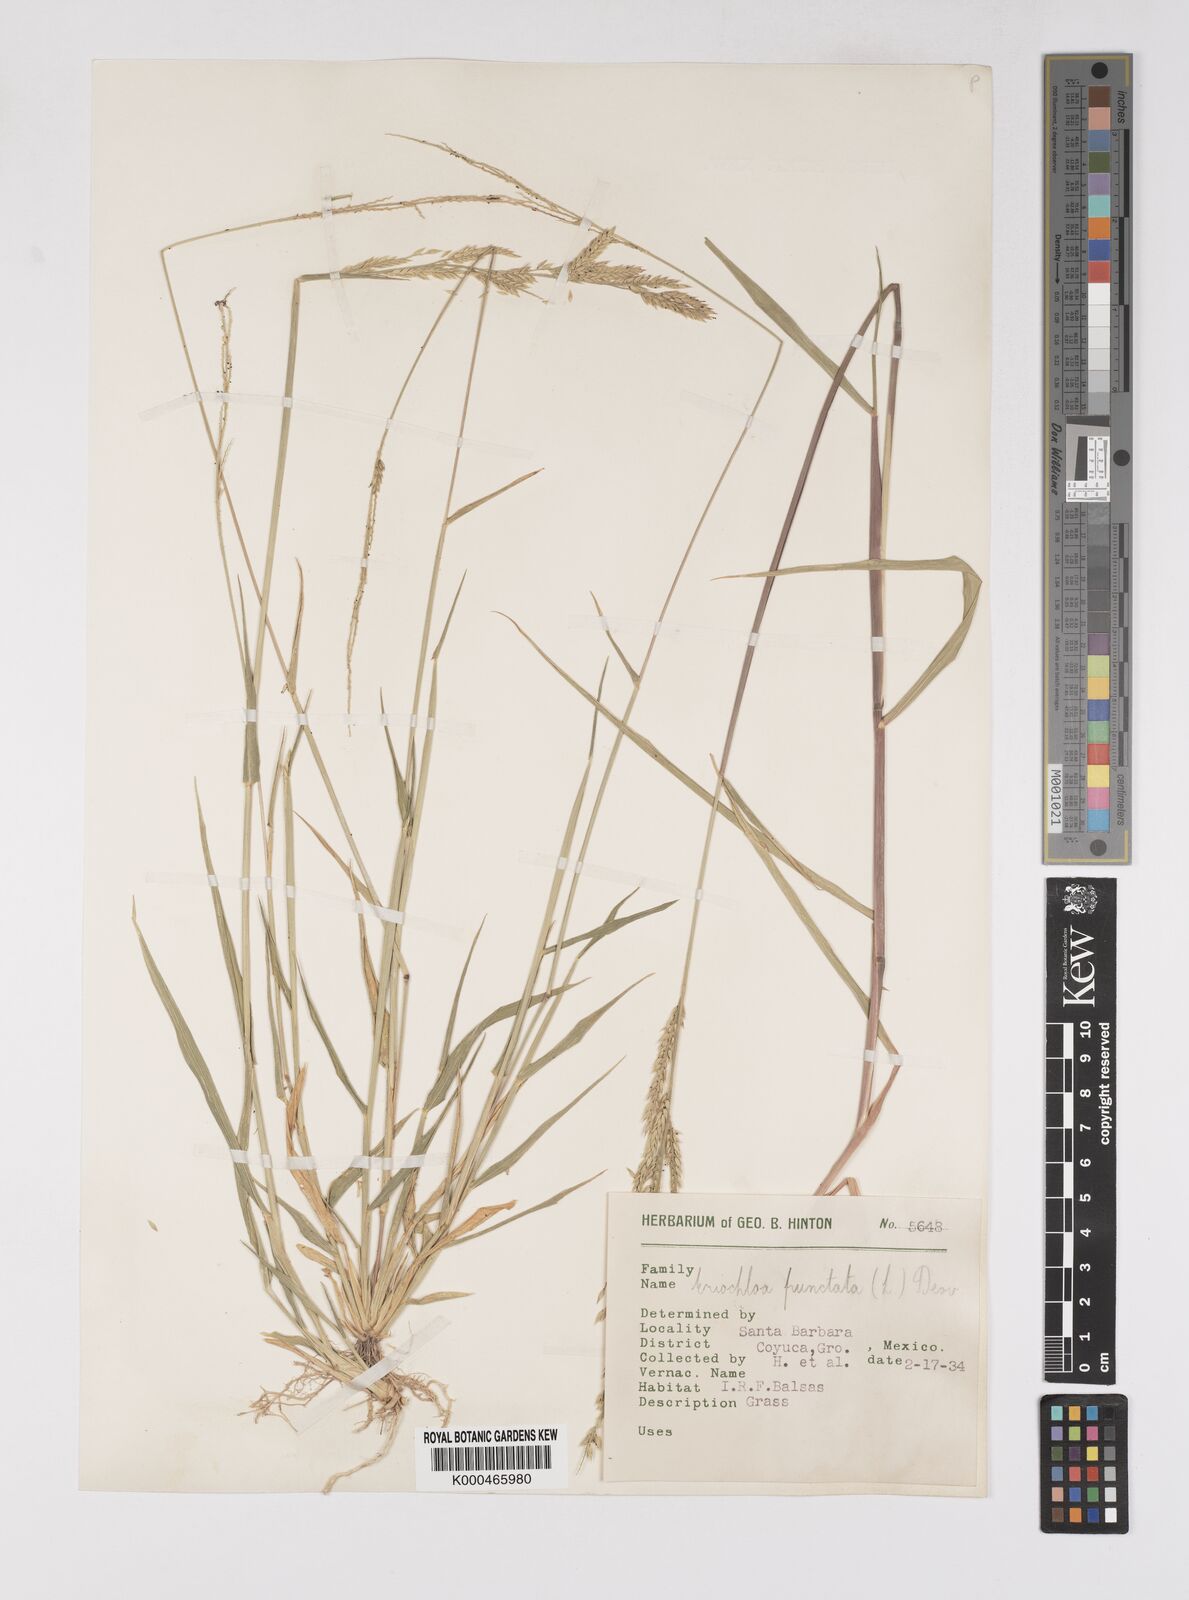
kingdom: Plantae
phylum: Tracheophyta
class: Liliopsida
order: Poales
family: Poaceae
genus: Eriochloa
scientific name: Eriochloa punctata
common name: Louisiana cupgrass
